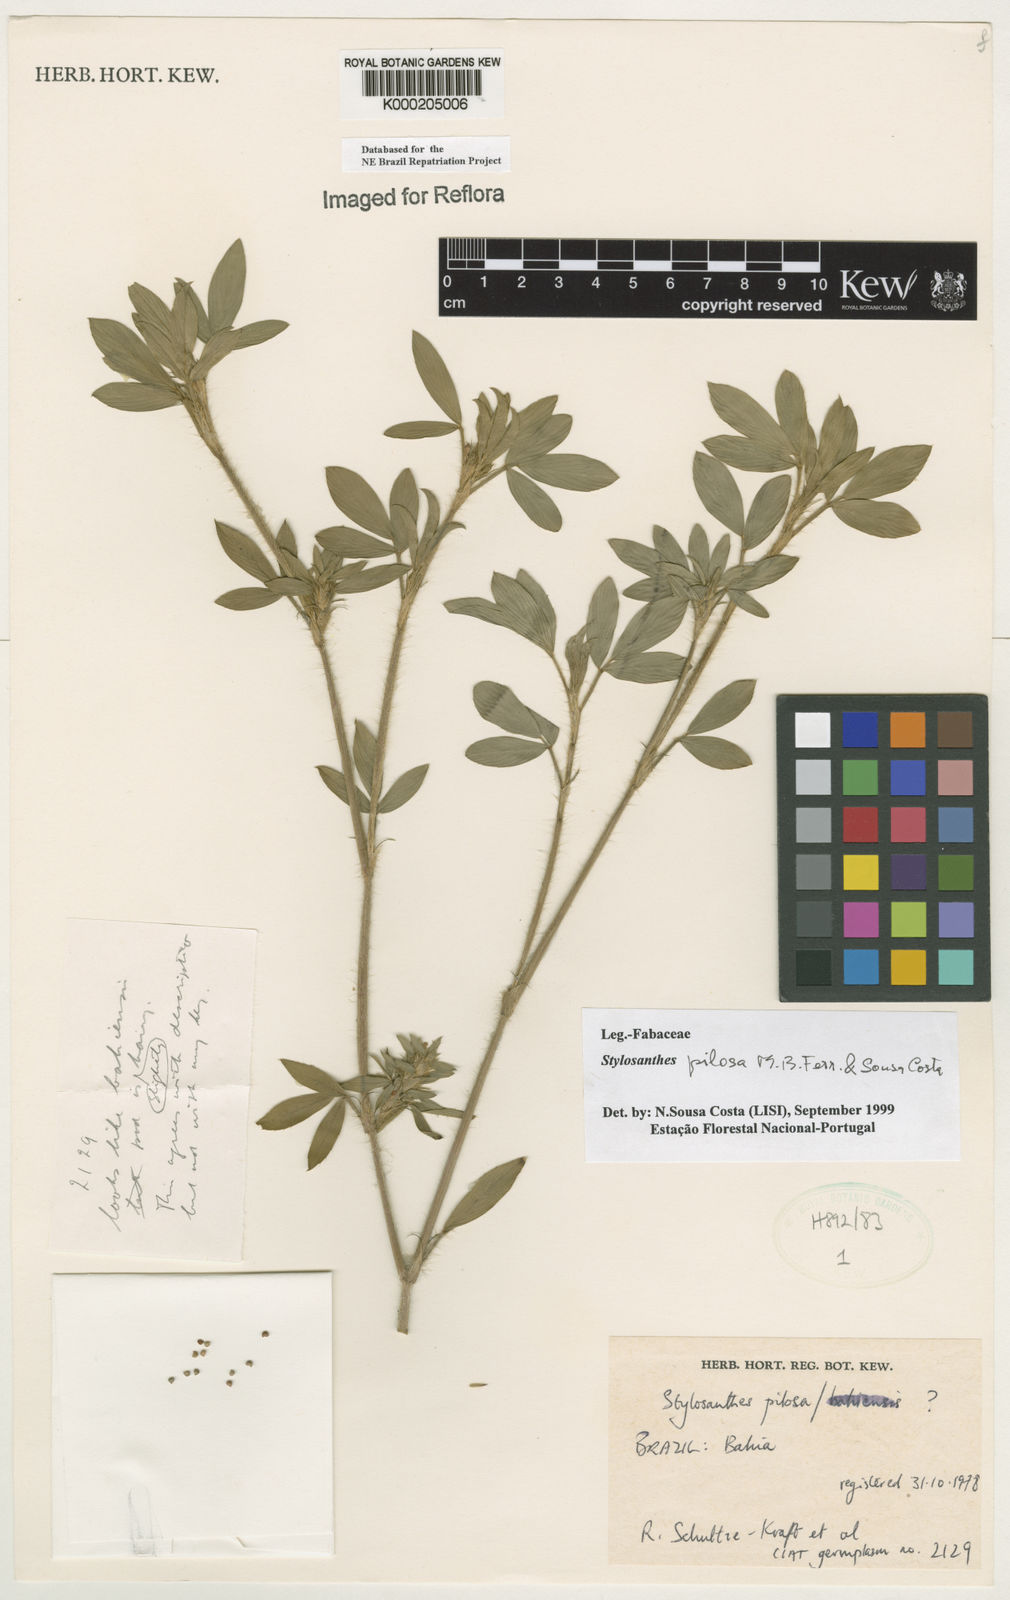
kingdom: Plantae
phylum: Tracheophyta
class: Magnoliopsida
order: Fabales
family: Fabaceae
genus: Stylosanthes
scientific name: Stylosanthes viscosa
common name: Viscid pencil-flower
